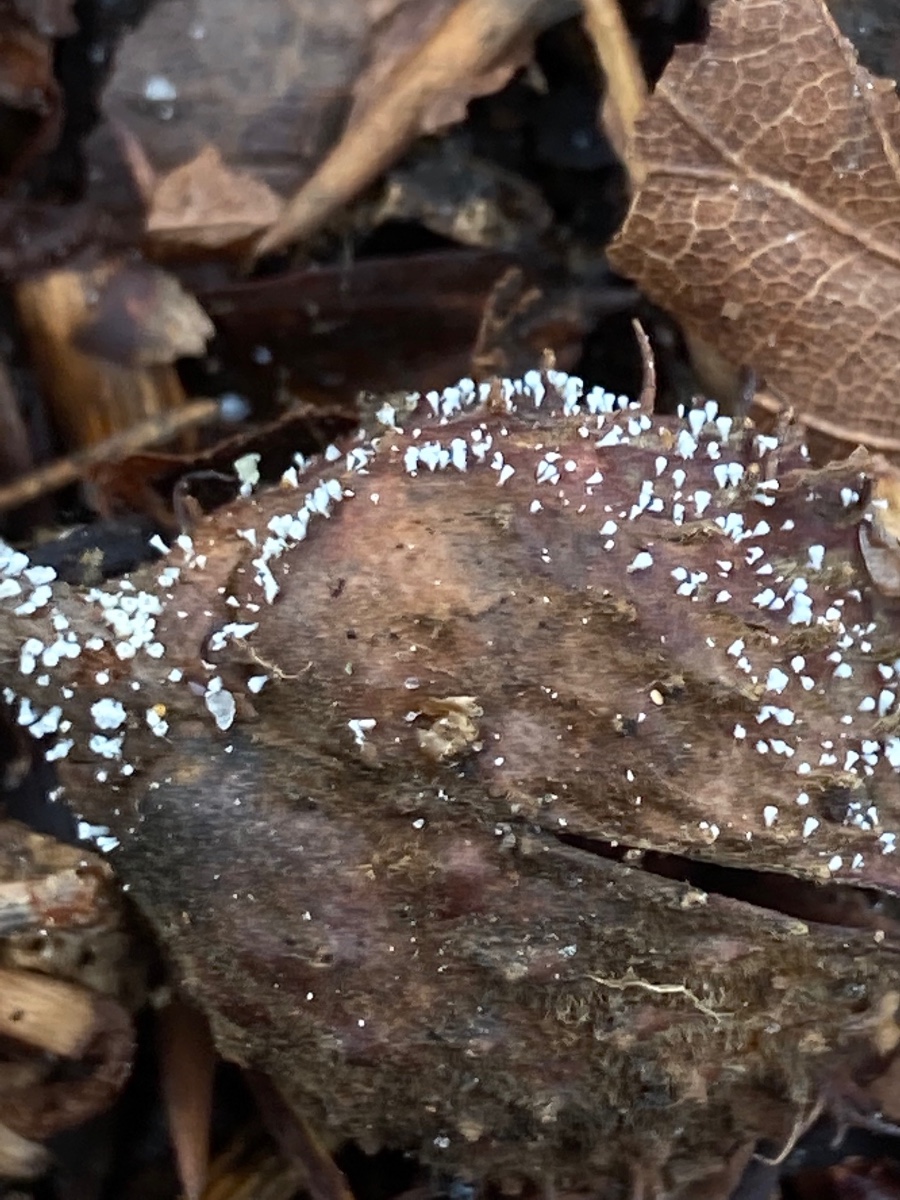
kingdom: Fungi
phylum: Ascomycota
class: Leotiomycetes
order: Helotiales
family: Lachnaceae
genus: Lachnum
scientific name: Lachnum virgineum
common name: jomfru-frynseskive
